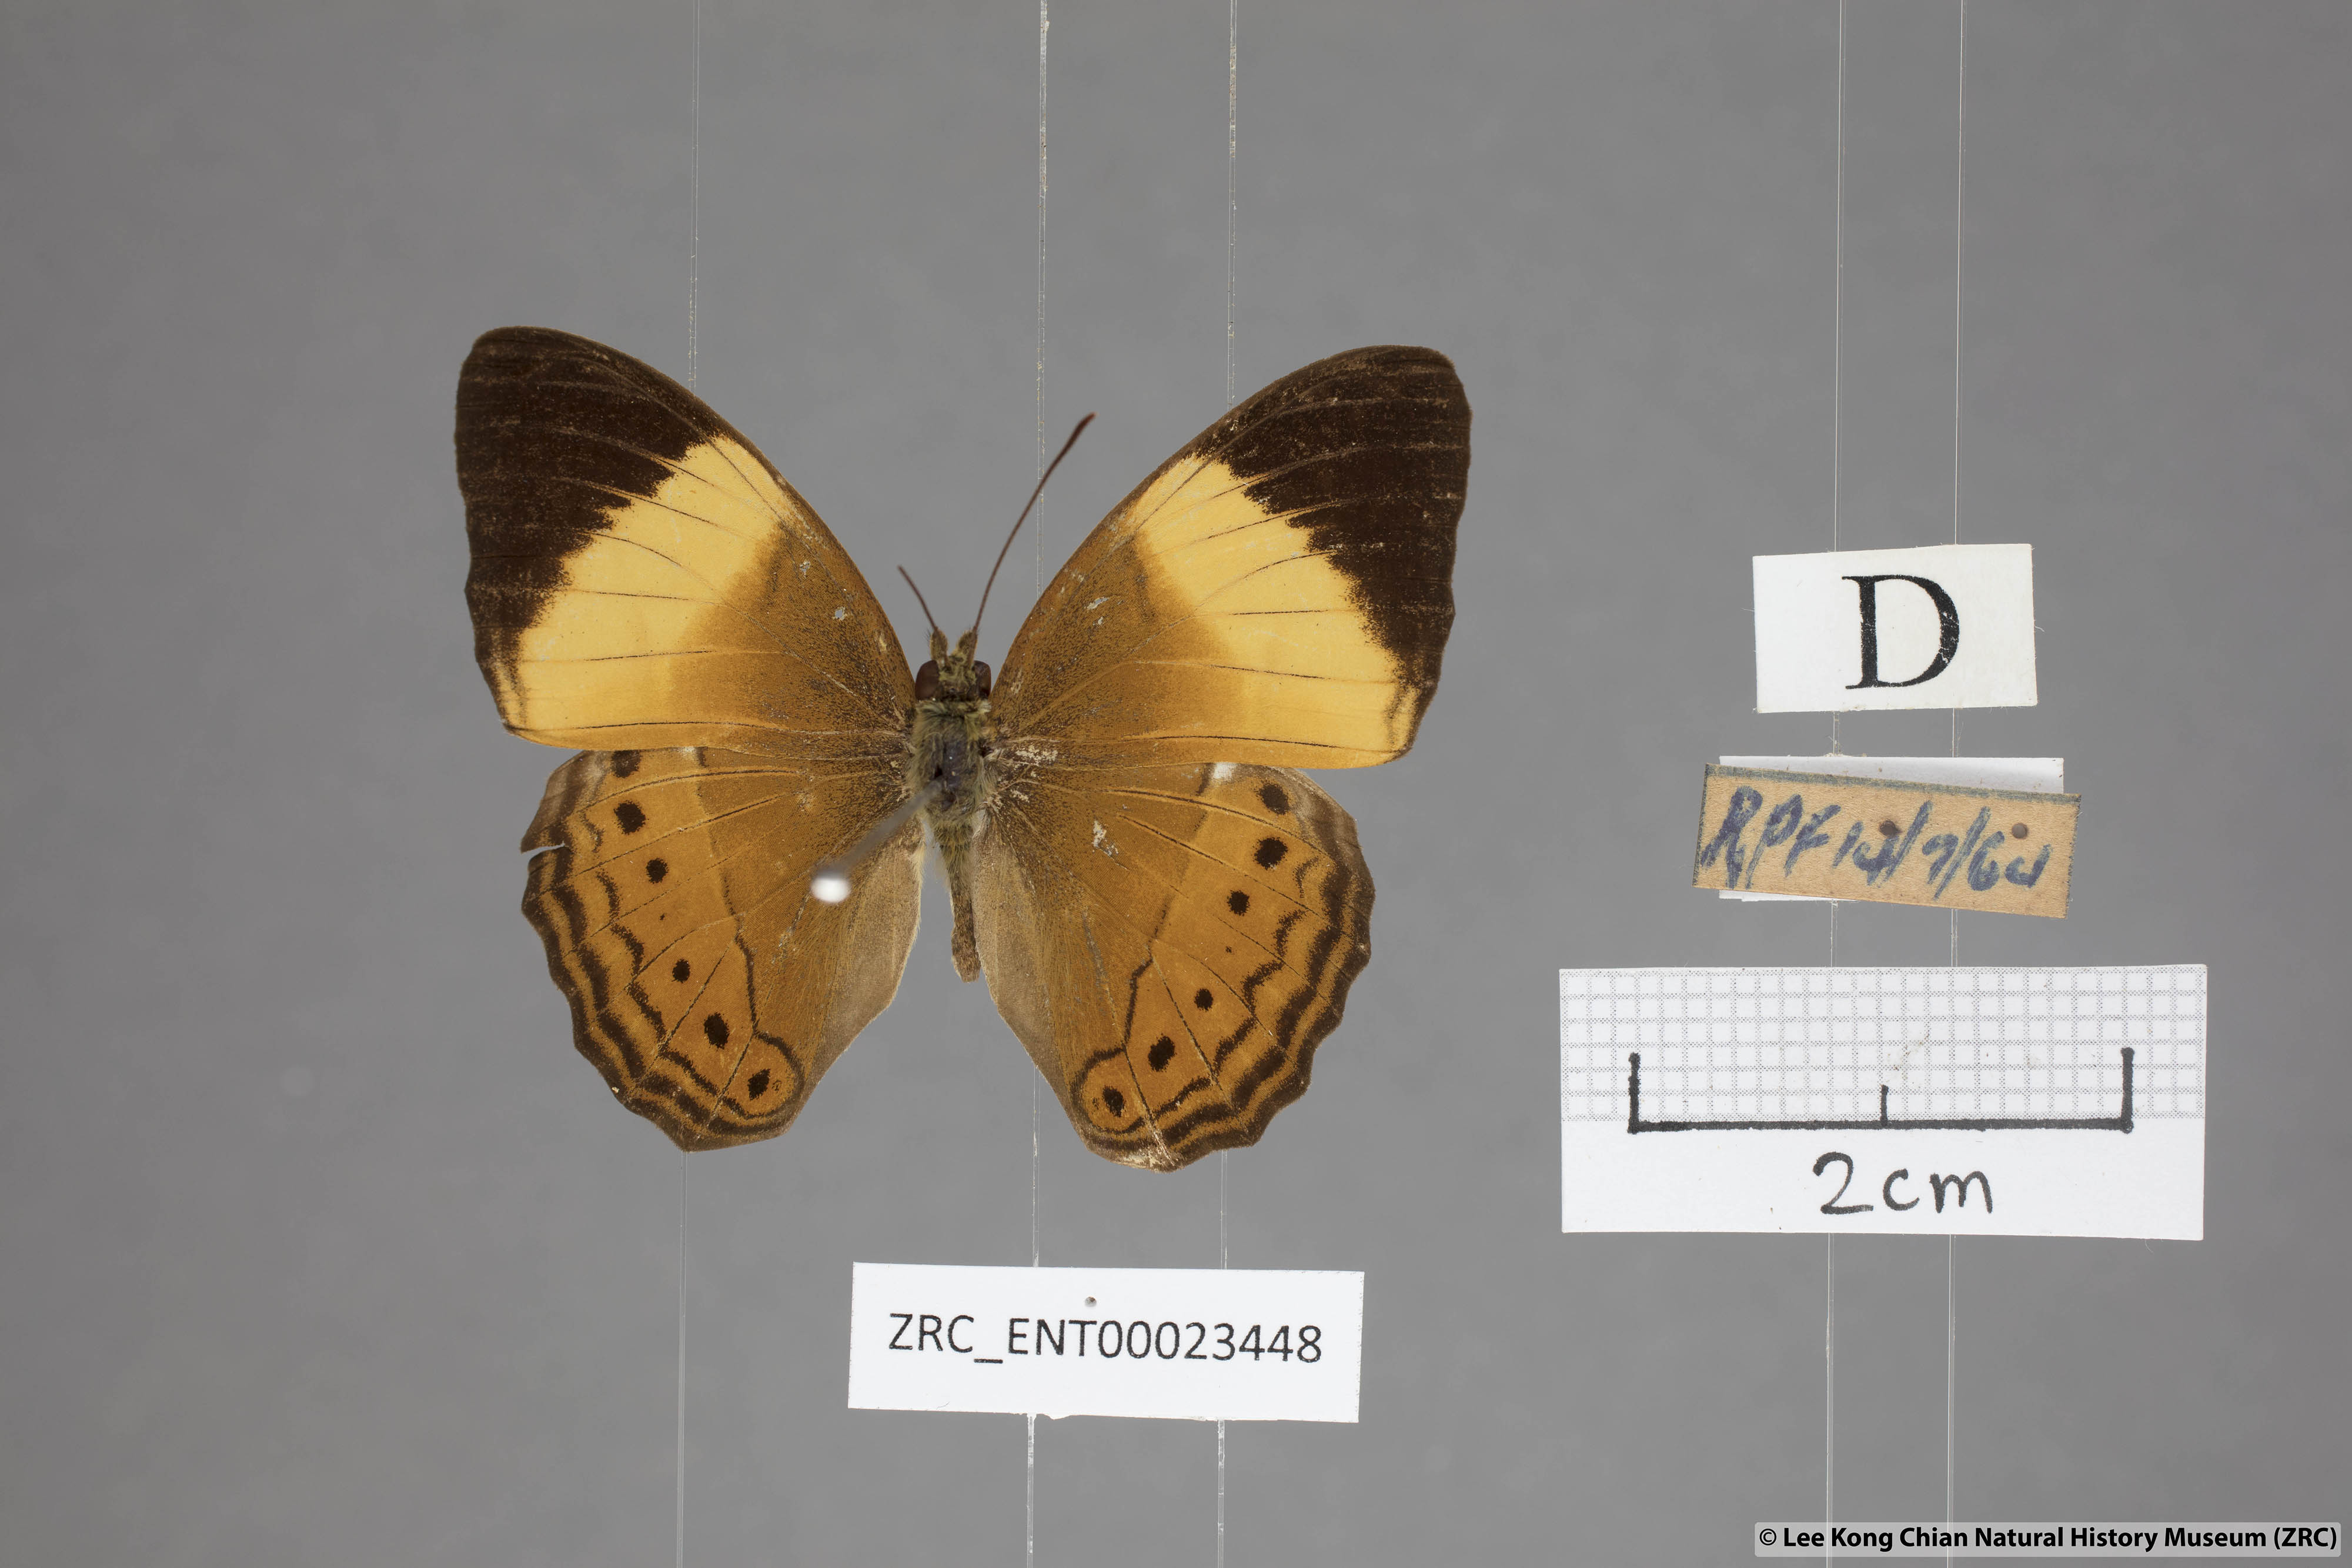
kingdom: Animalia
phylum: Arthropoda
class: Insecta
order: Lepidoptera
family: Nymphalidae
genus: Cirrochroa
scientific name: Cirrochroa orissa
